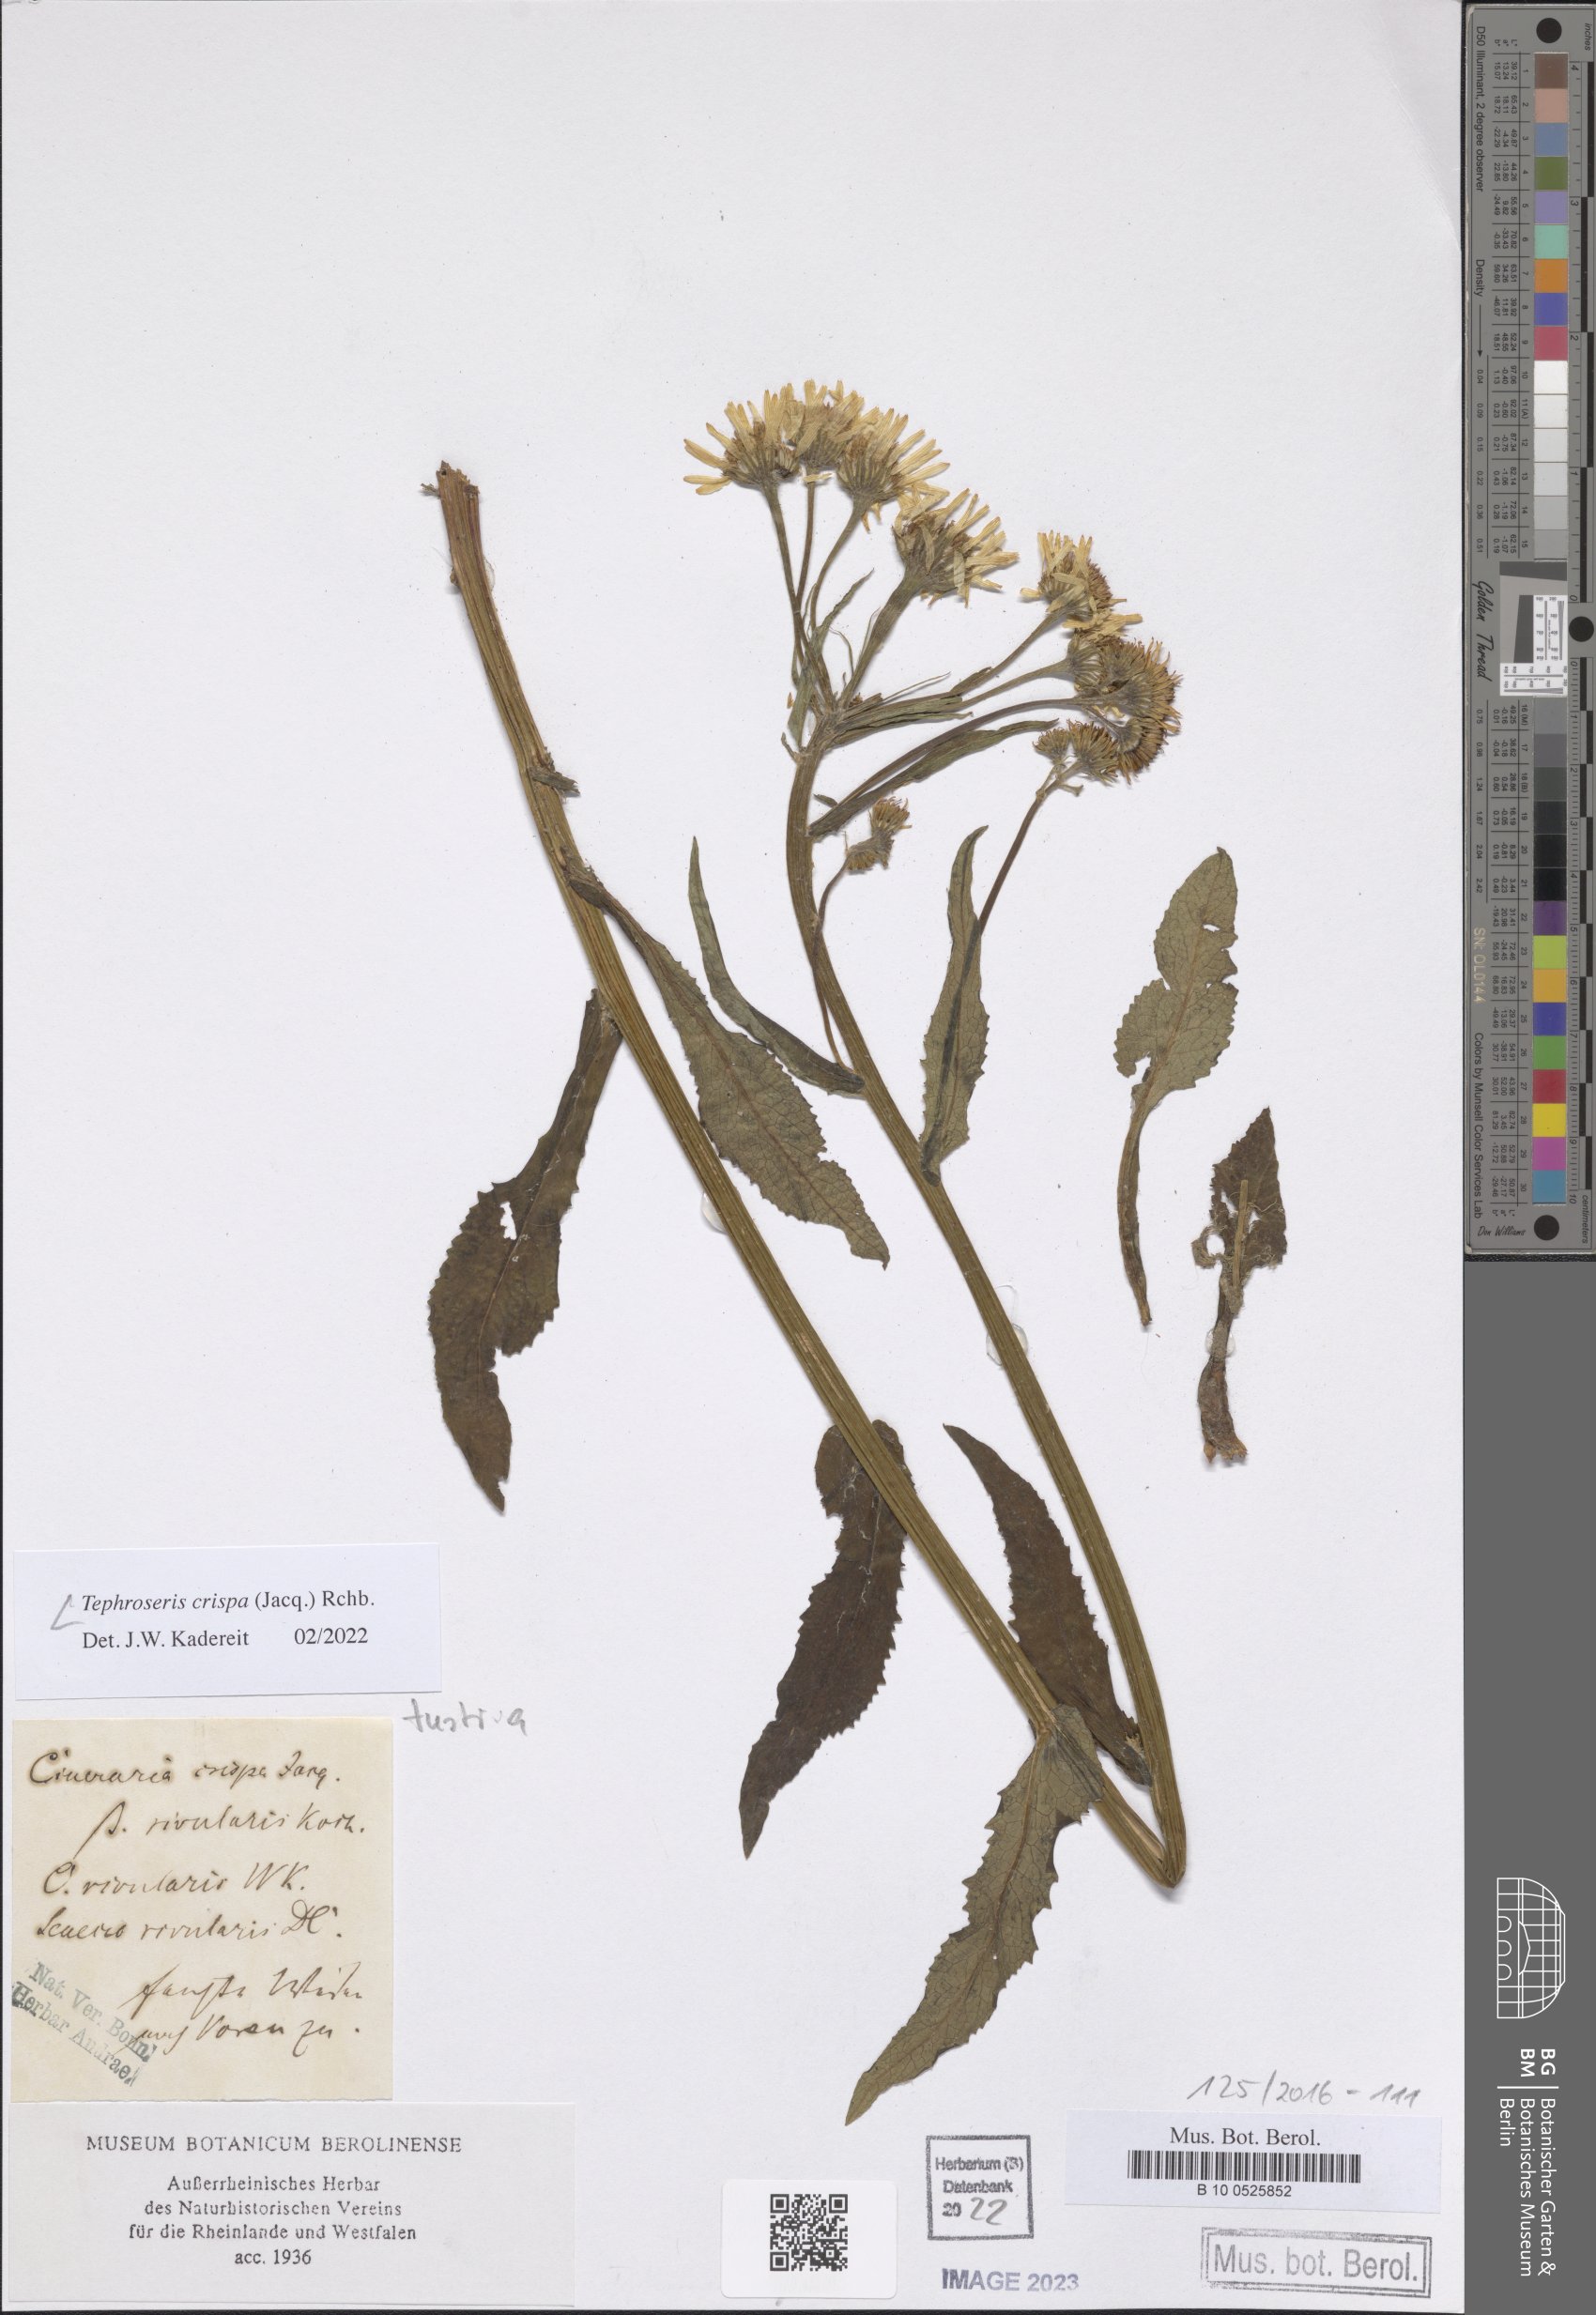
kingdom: Plantae
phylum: Tracheophyta
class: Magnoliopsida
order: Asterales
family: Asteraceae
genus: Tephroseris
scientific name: Tephroseris crispa
